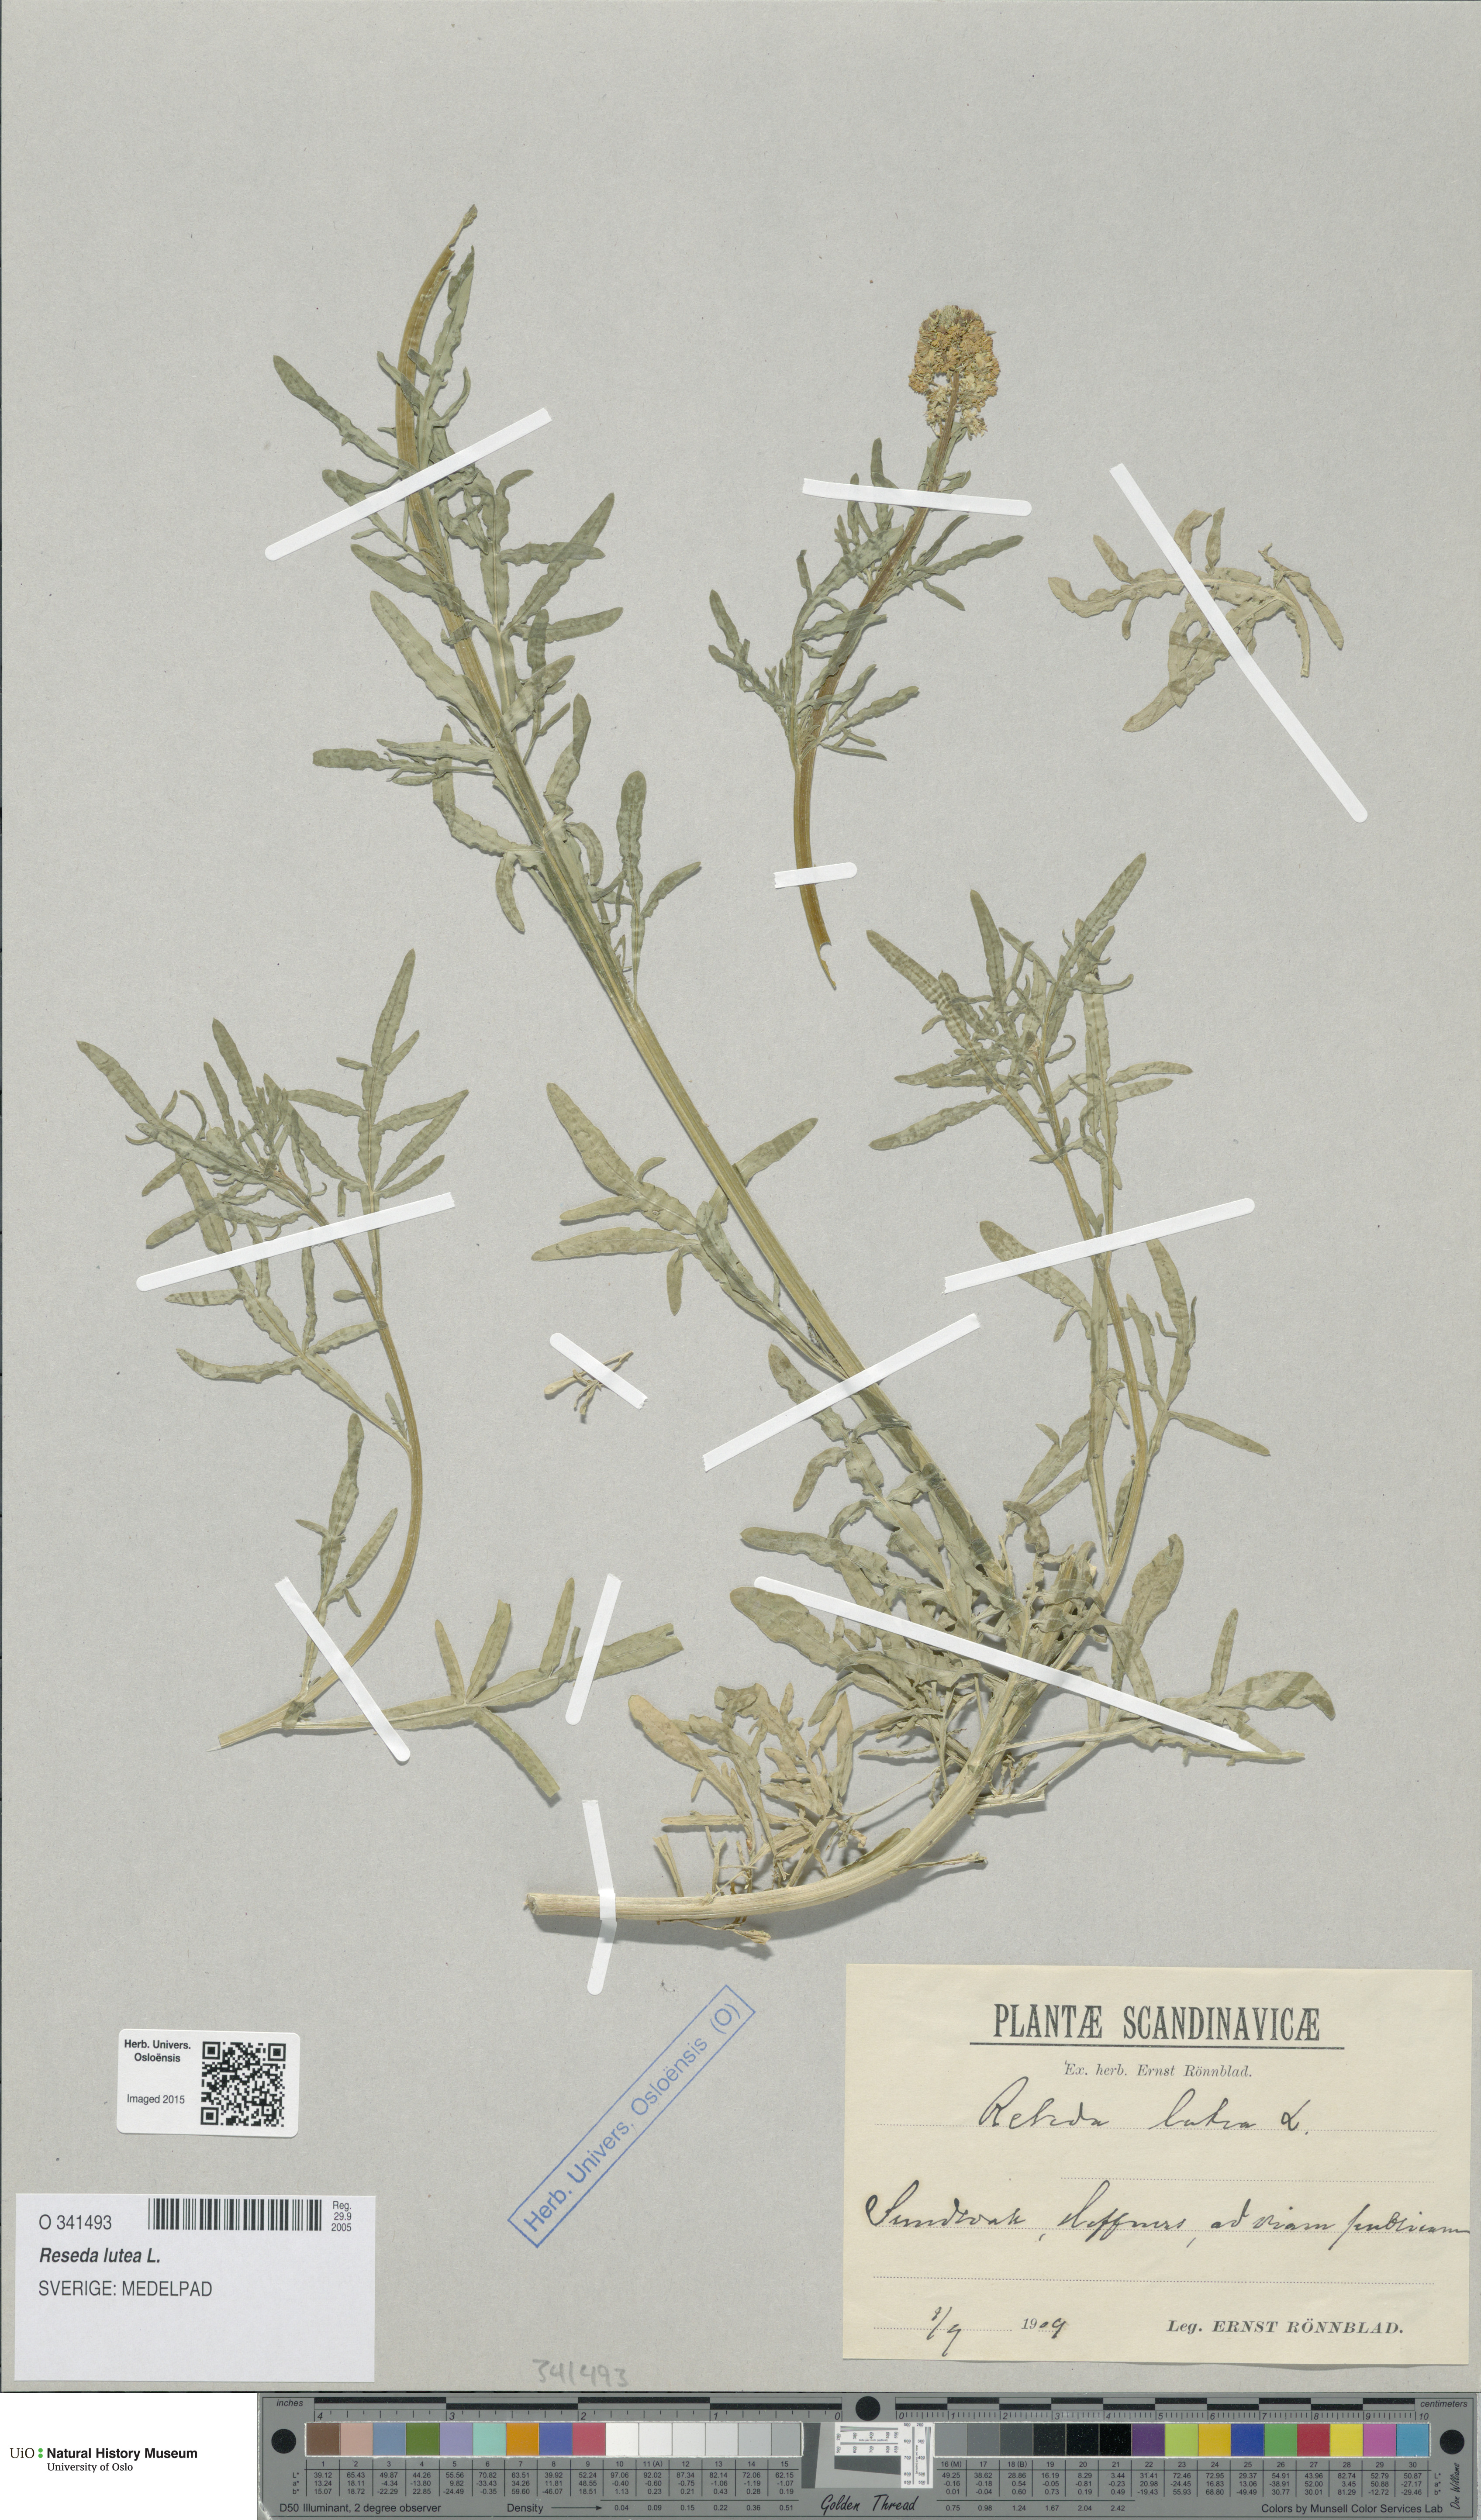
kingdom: Plantae
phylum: Tracheophyta
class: Magnoliopsida
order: Brassicales
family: Resedaceae
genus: Reseda
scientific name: Reseda lutea
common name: Wild mignonette
